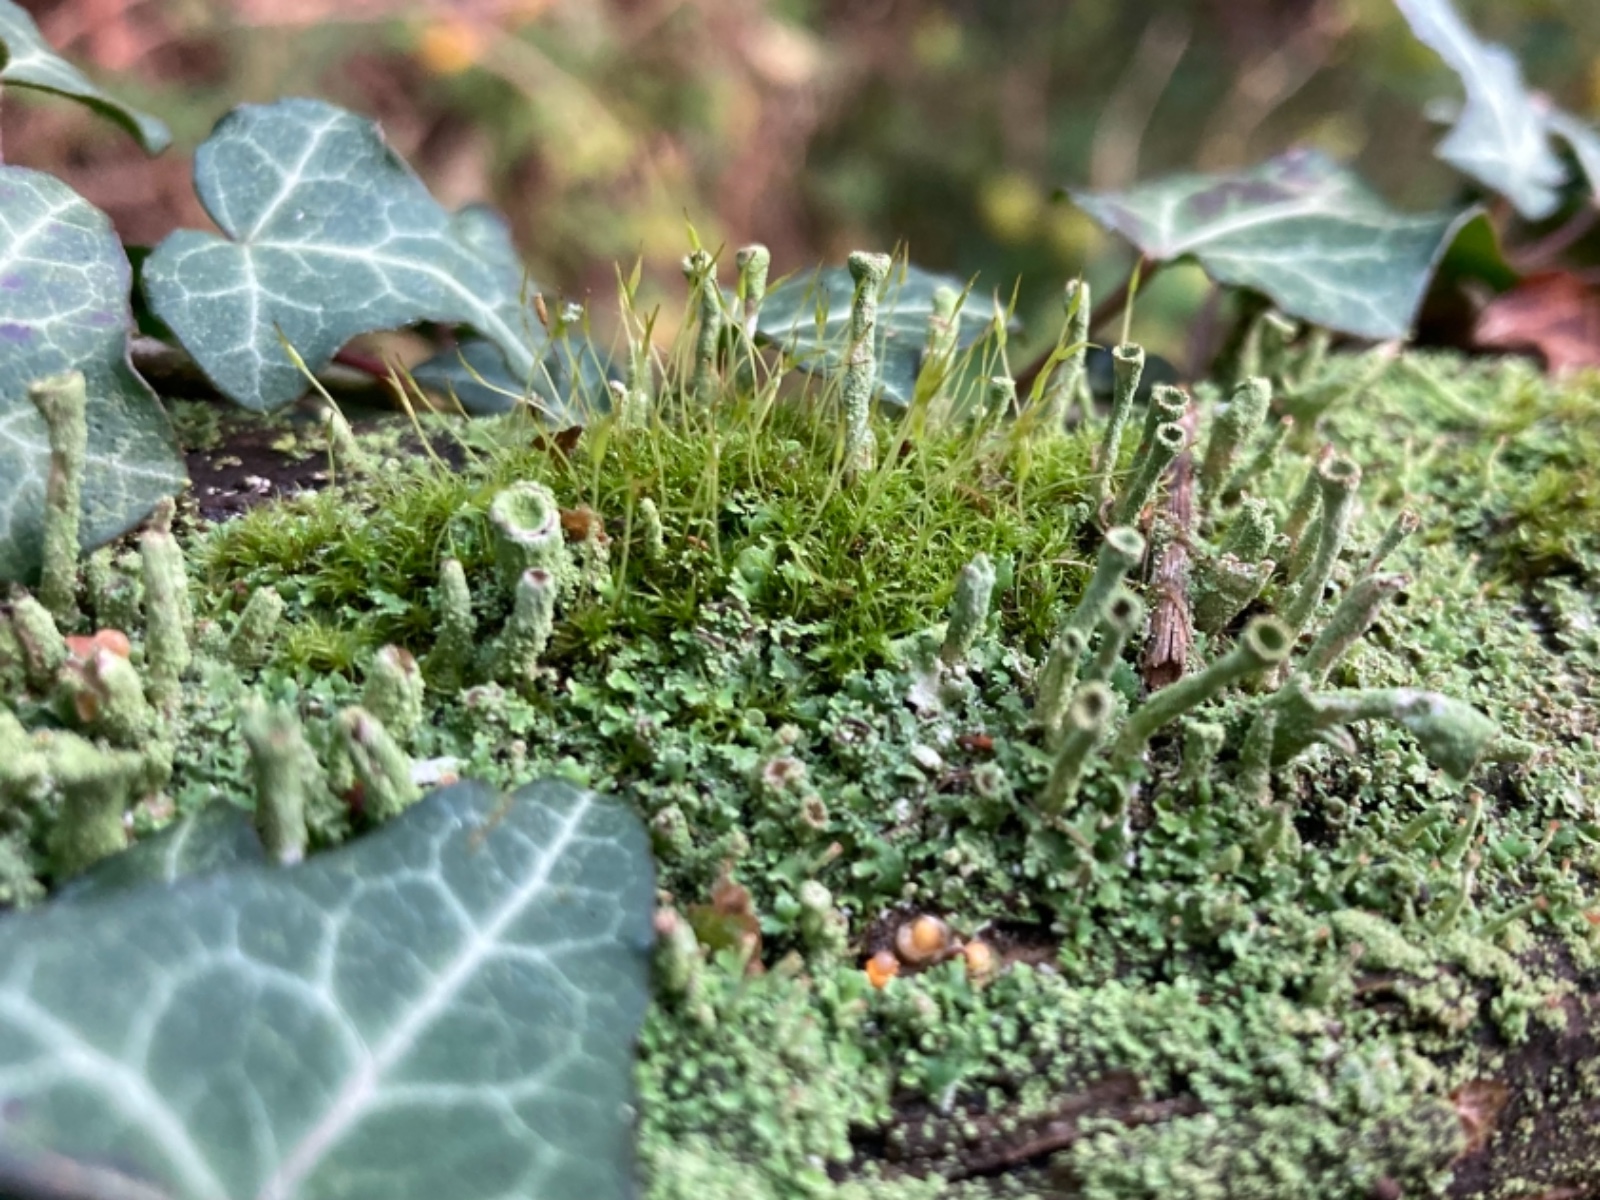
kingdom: Fungi
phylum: Ascomycota
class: Lecanoromycetes
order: Lecanorales
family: Cladoniaceae
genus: Cladonia
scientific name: Cladonia
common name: brungrøn bægerlav
